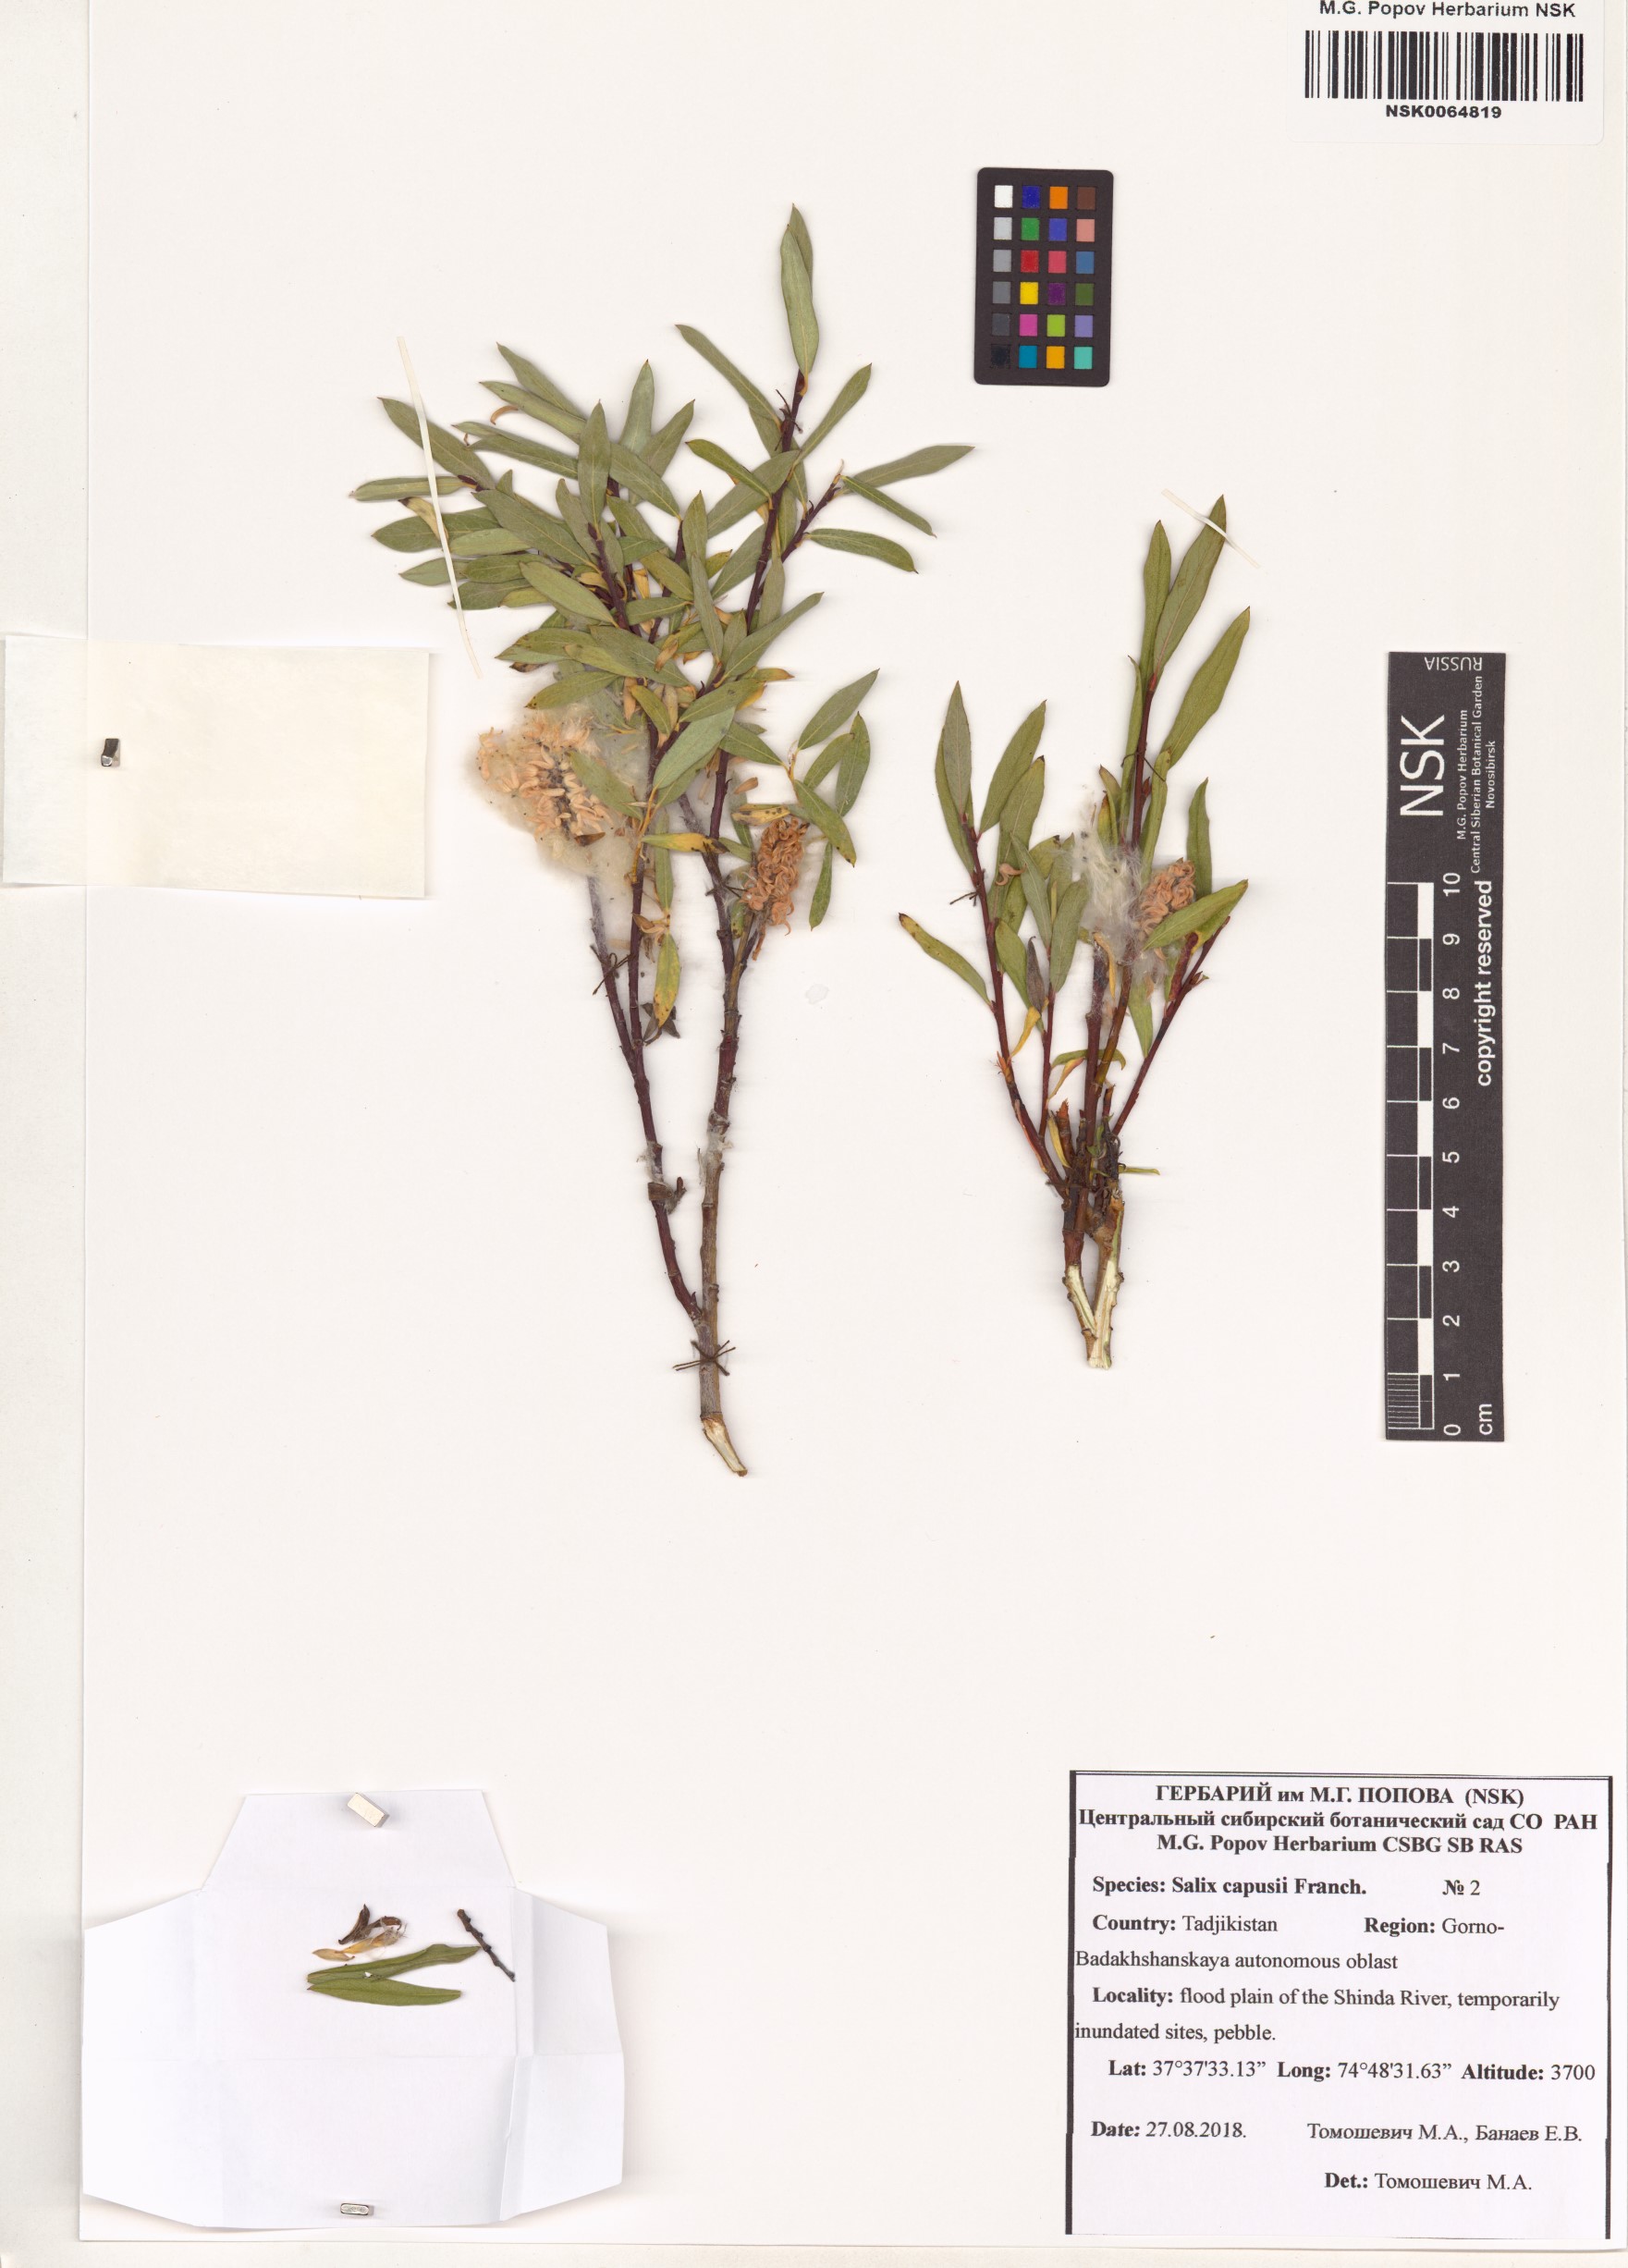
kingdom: Plantae
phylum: Tracheophyta
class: Magnoliopsida
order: Malpighiales
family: Salicaceae
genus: Salix
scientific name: Salix capusii
